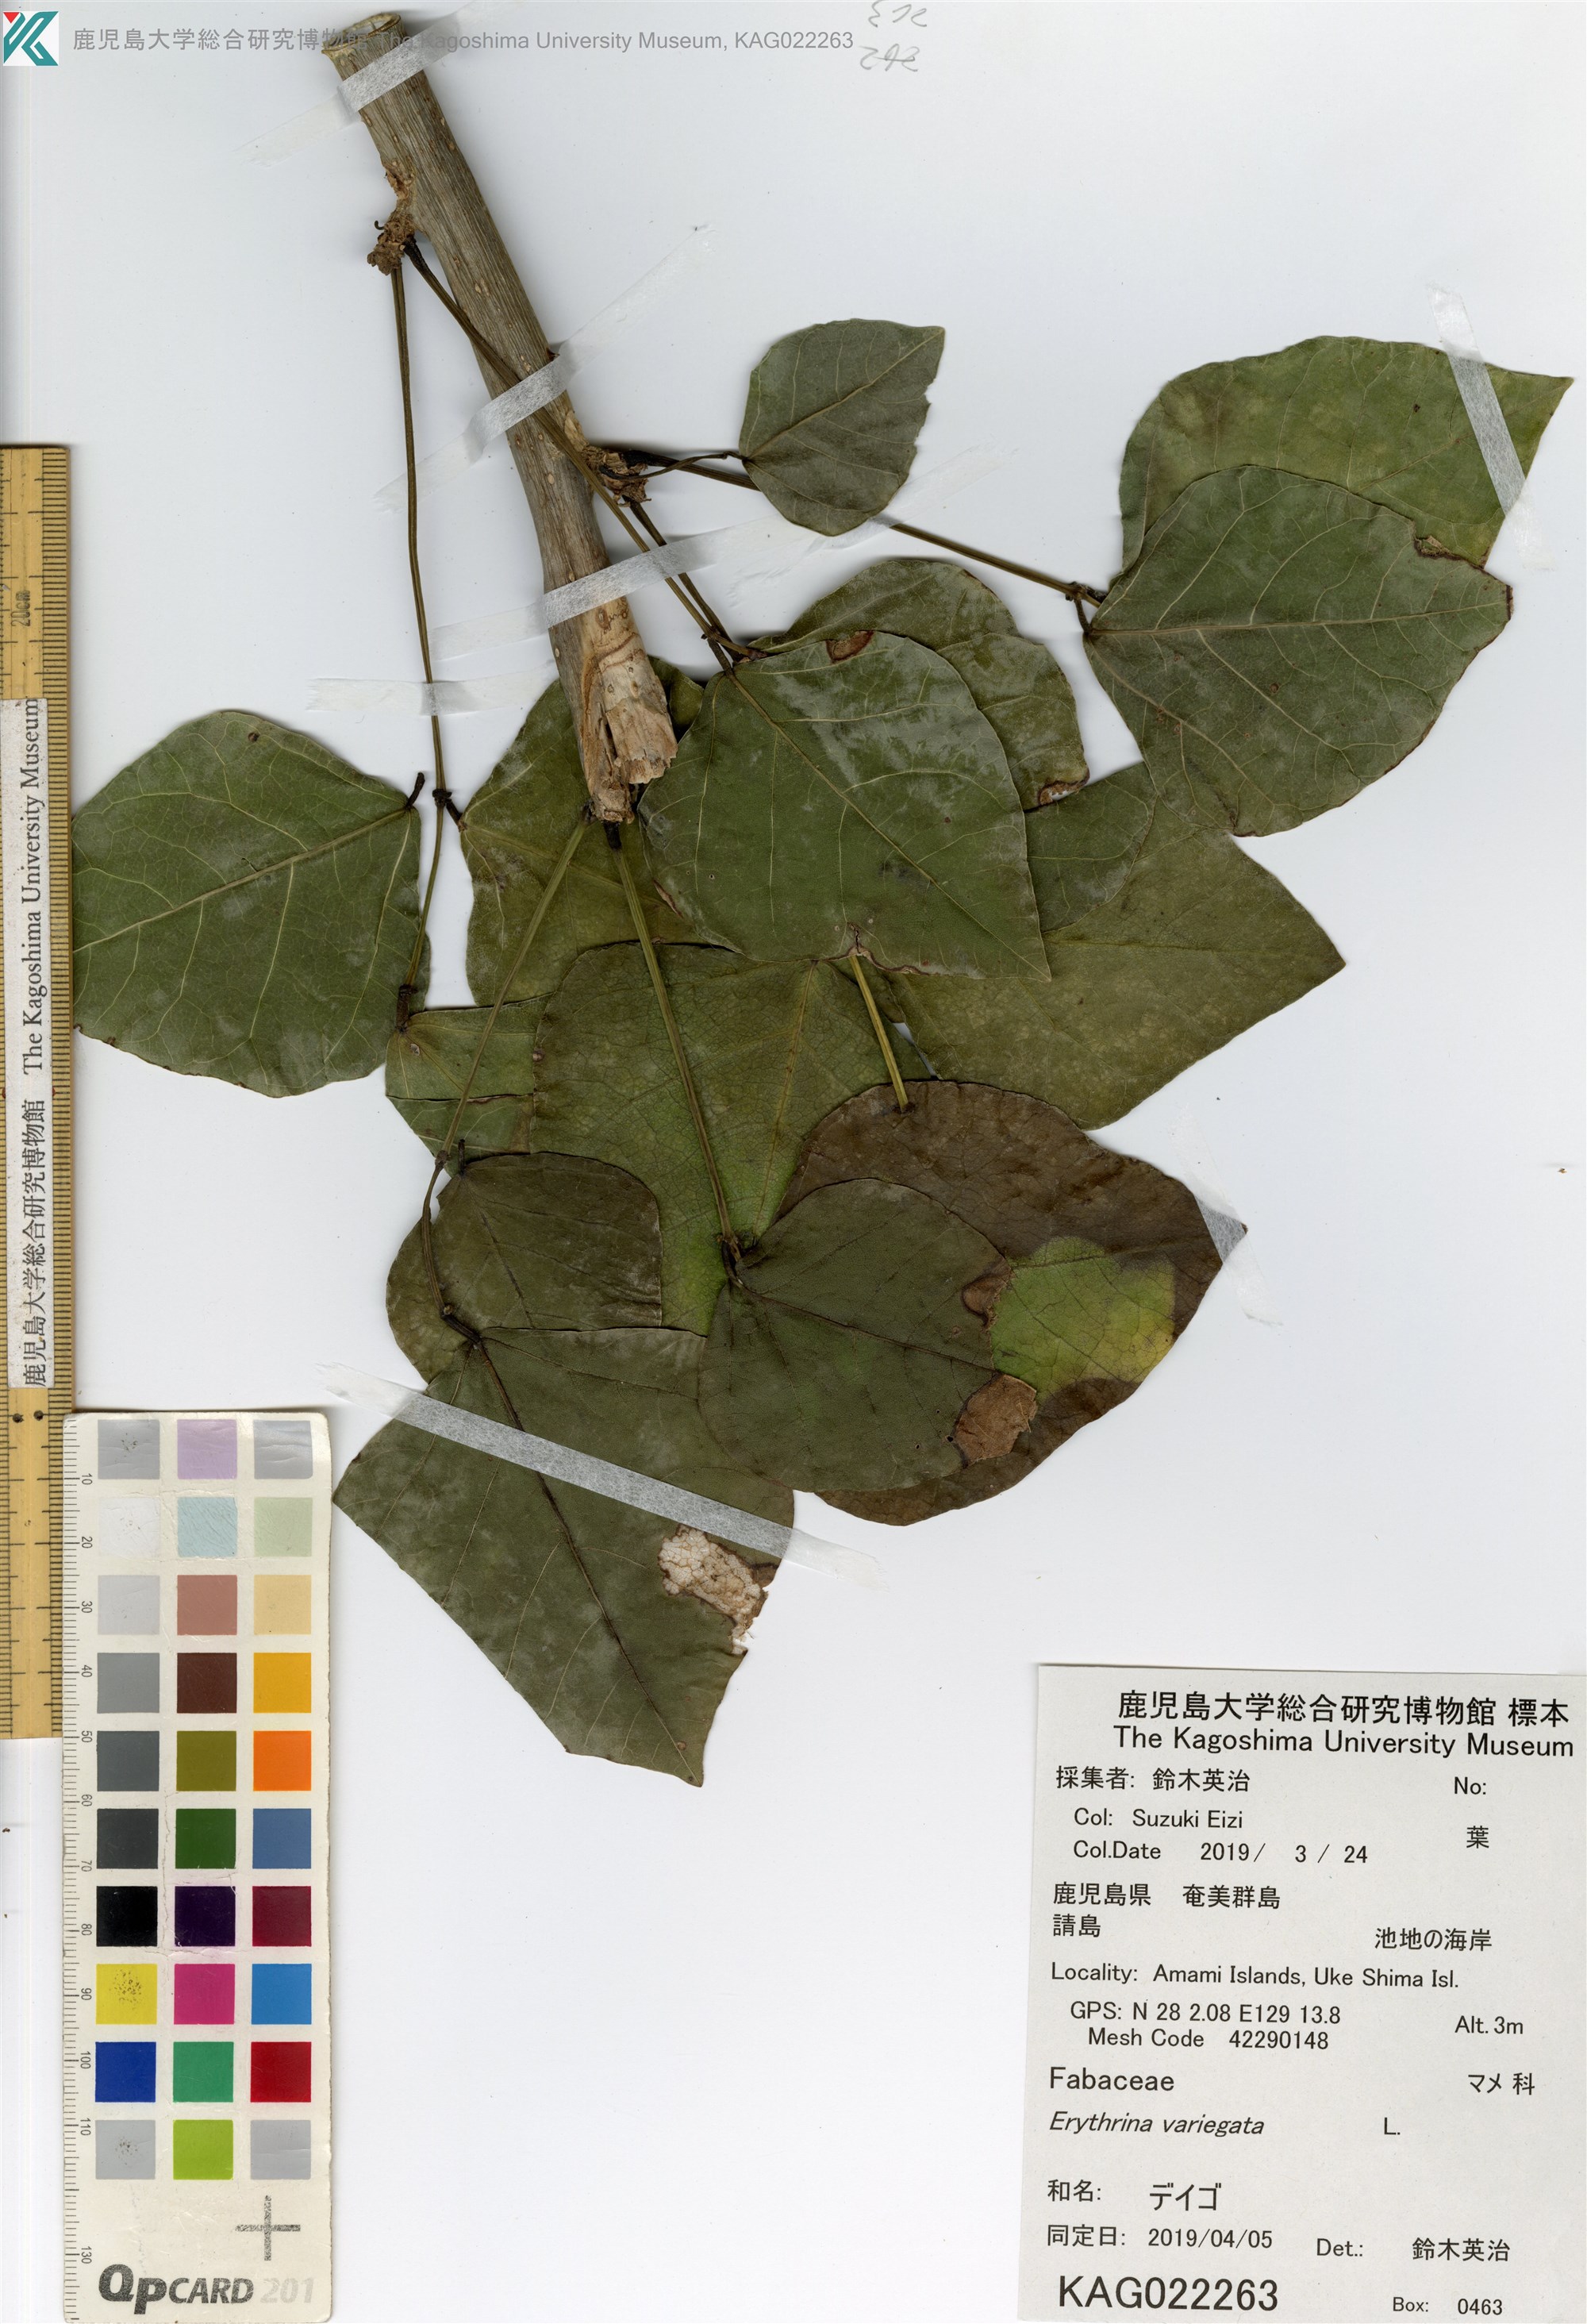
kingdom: Plantae
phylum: Tracheophyta
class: Magnoliopsida
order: Fabales
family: Fabaceae
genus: Erythrina
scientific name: Erythrina variegata
